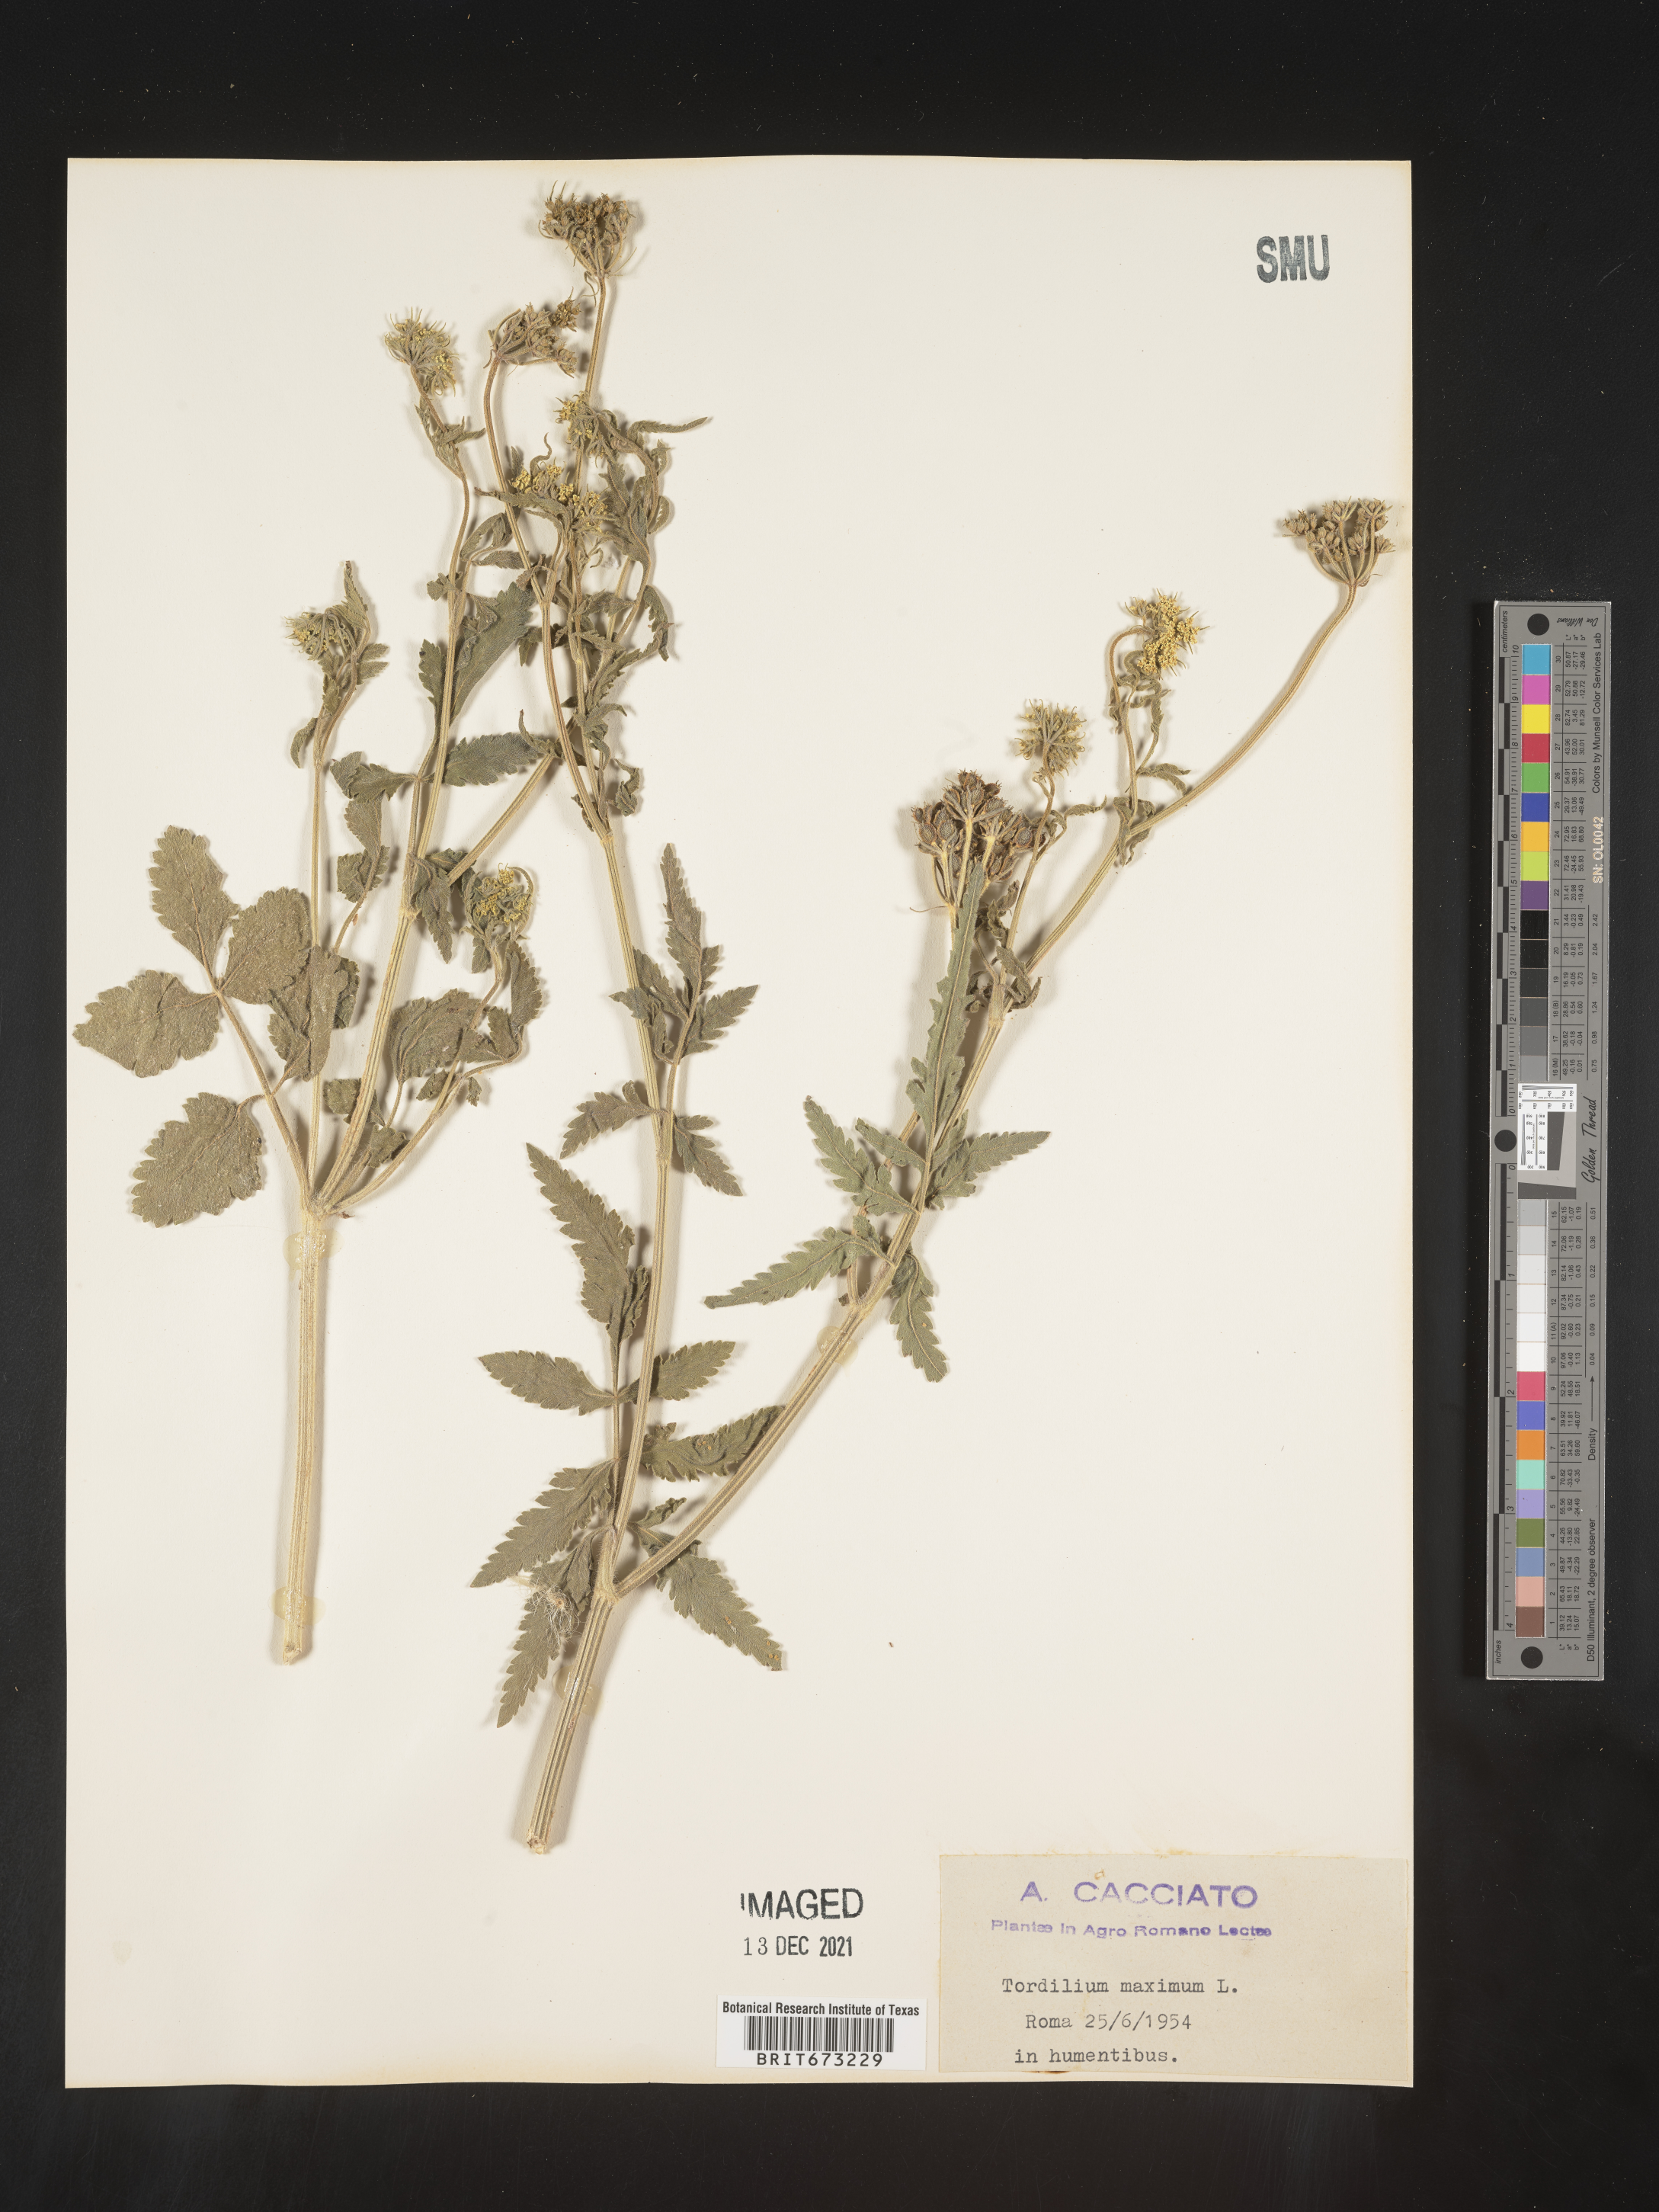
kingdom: Plantae
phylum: Tracheophyta
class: Magnoliopsida
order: Apiales
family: Apiaceae
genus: Tordylium
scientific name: Tordylium
